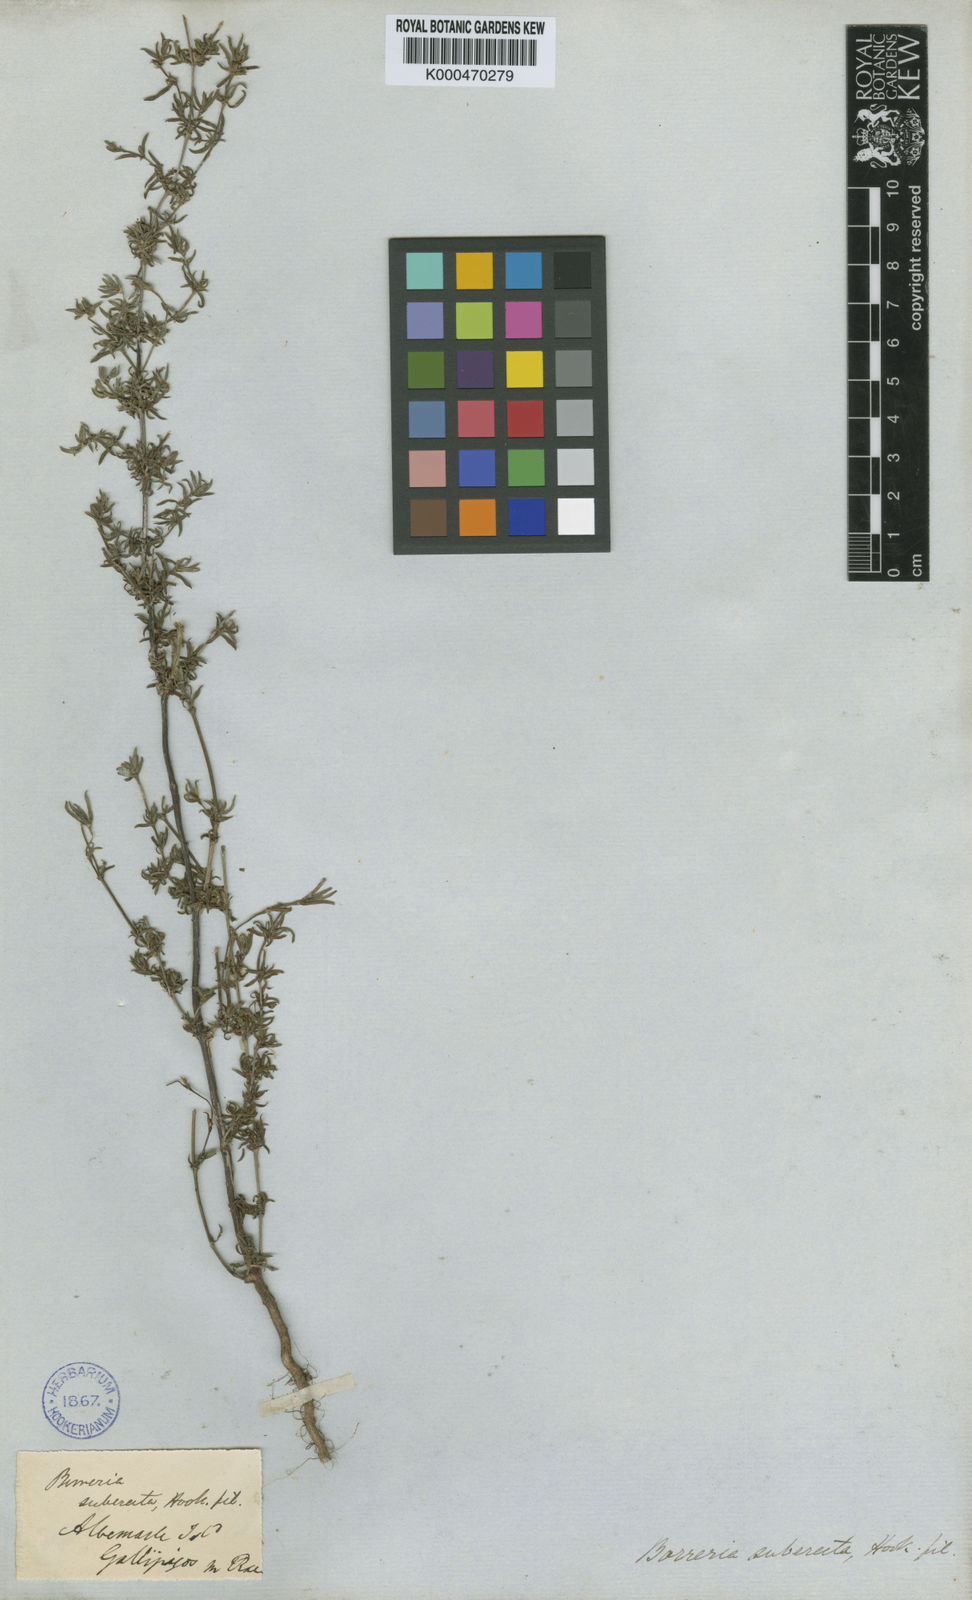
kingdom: Plantae
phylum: Tracheophyta
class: Magnoliopsida
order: Gentianales
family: Rubiaceae
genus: Spermacoce
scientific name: Spermacoce suberecta
